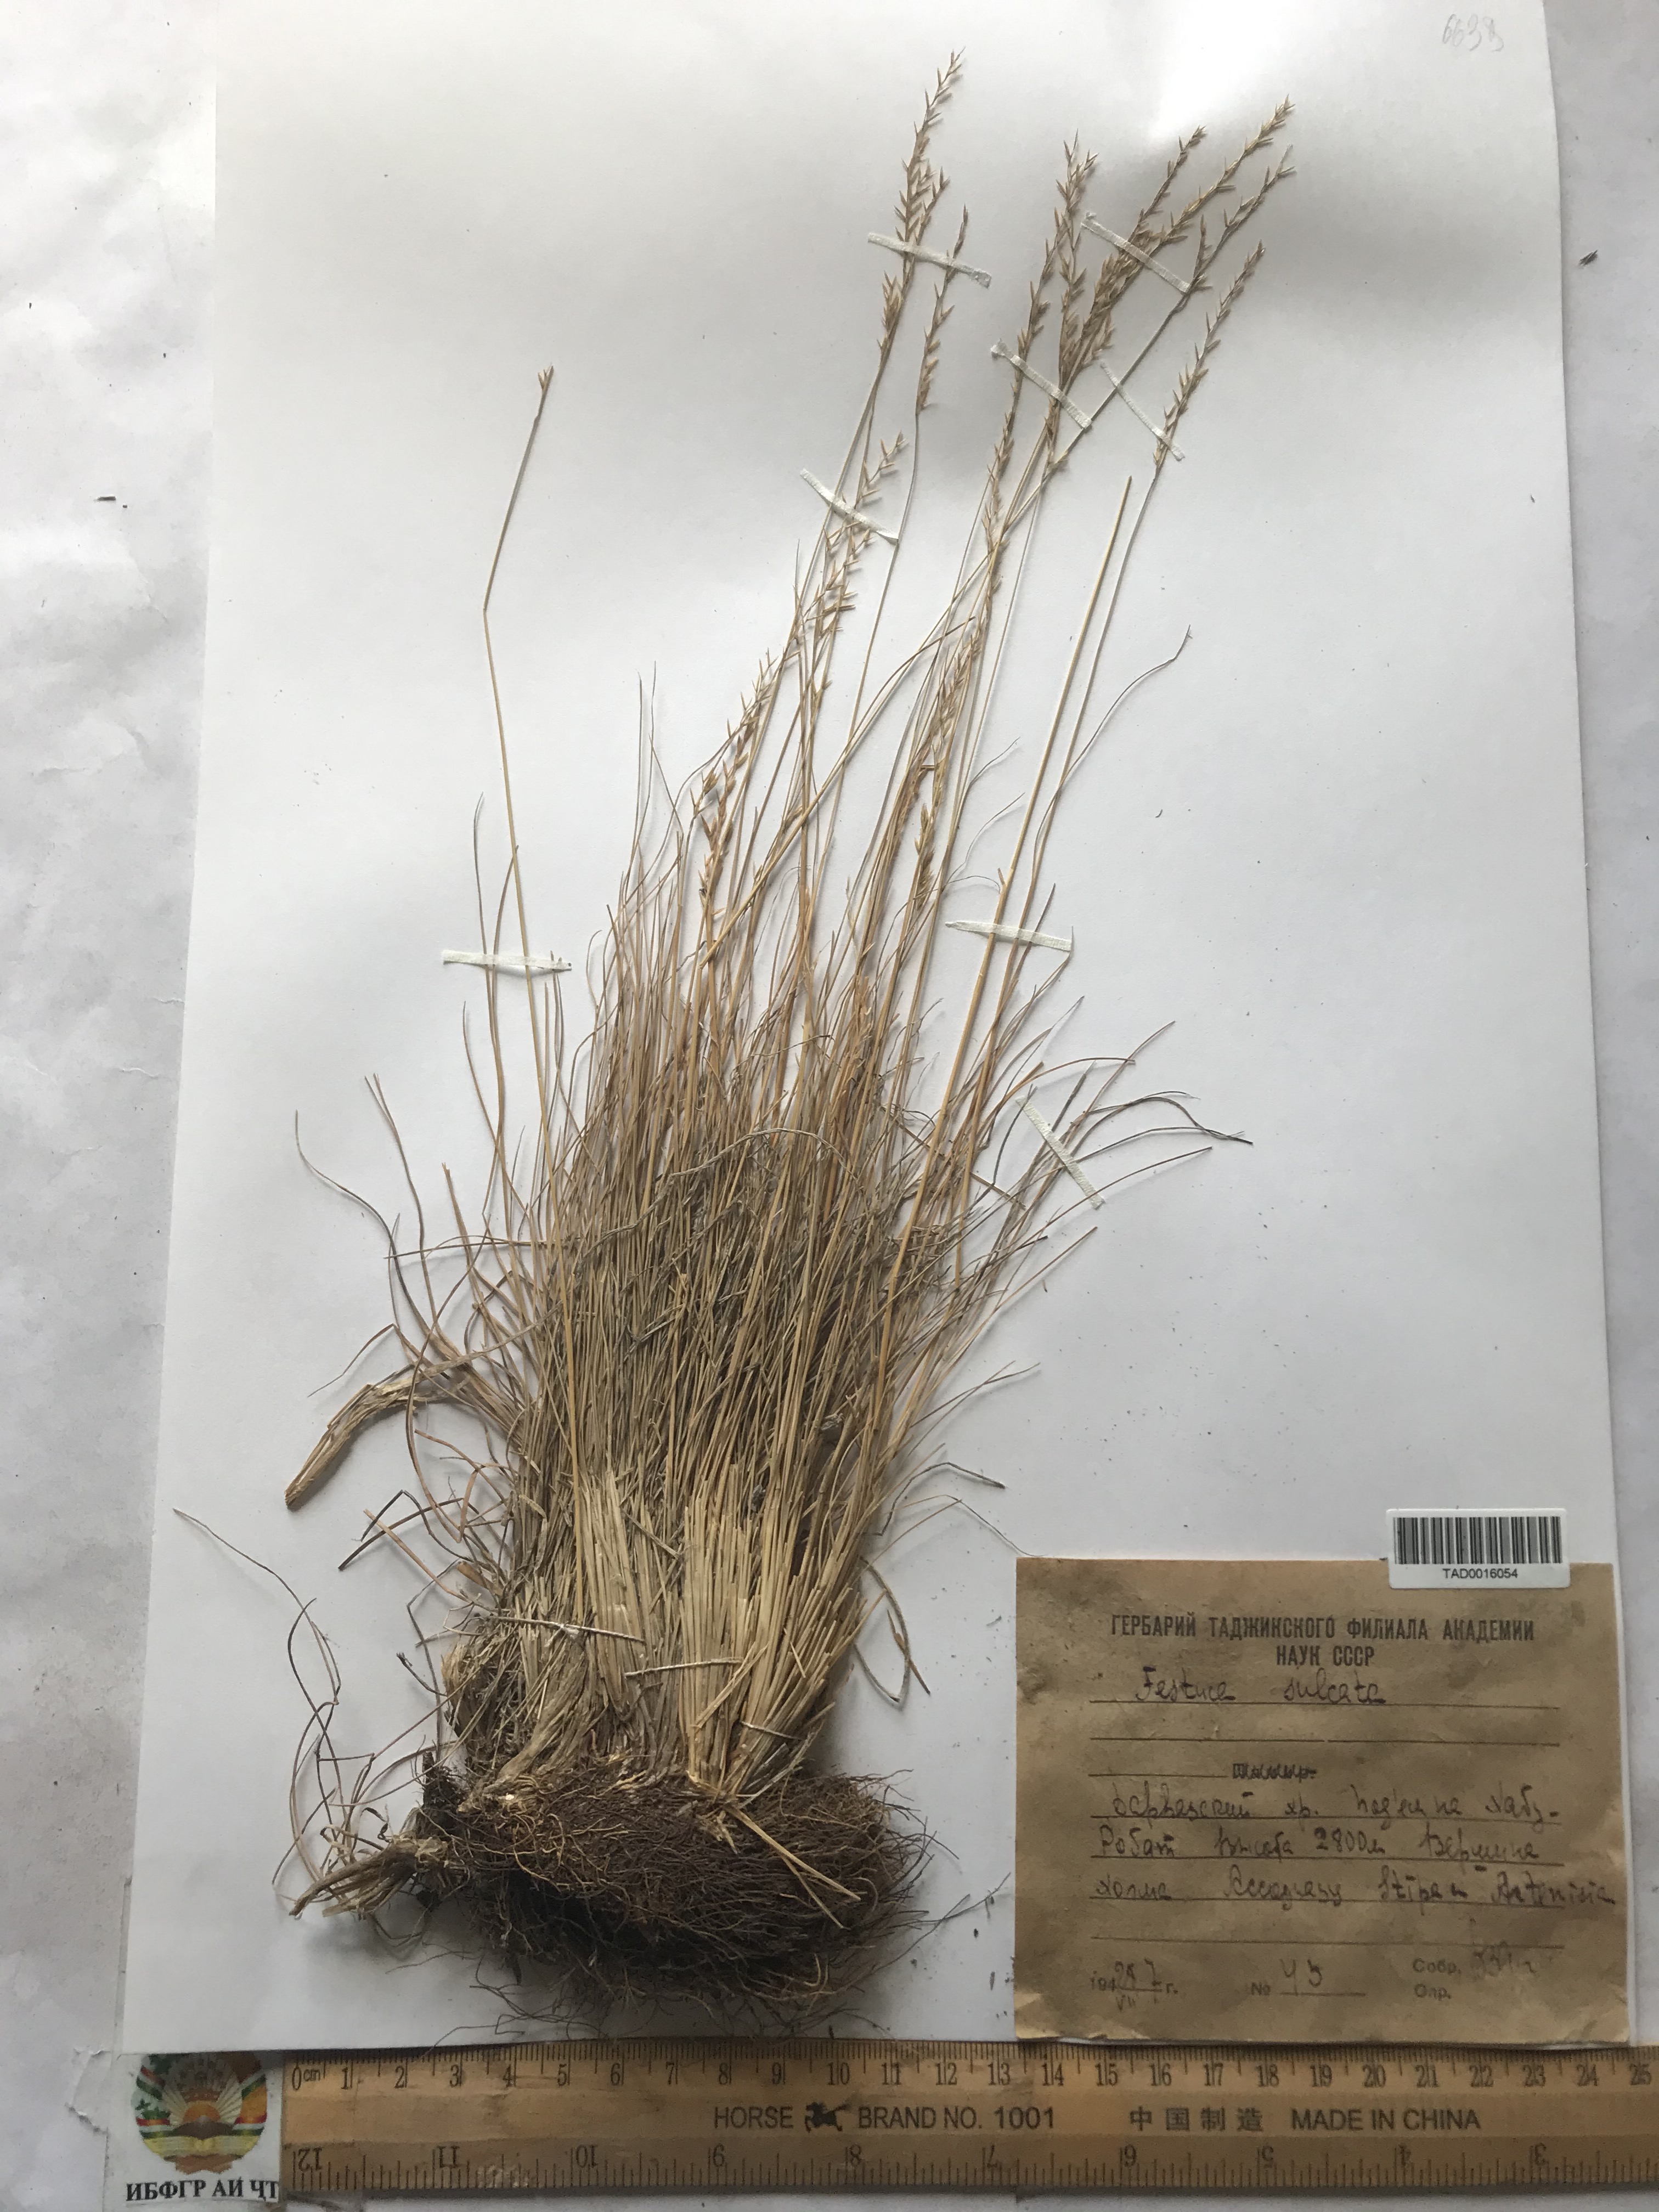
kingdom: Plantae
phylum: Tracheophyta
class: Liliopsida
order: Poales
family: Poaceae
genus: Festuca
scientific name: Festuca sulcata
